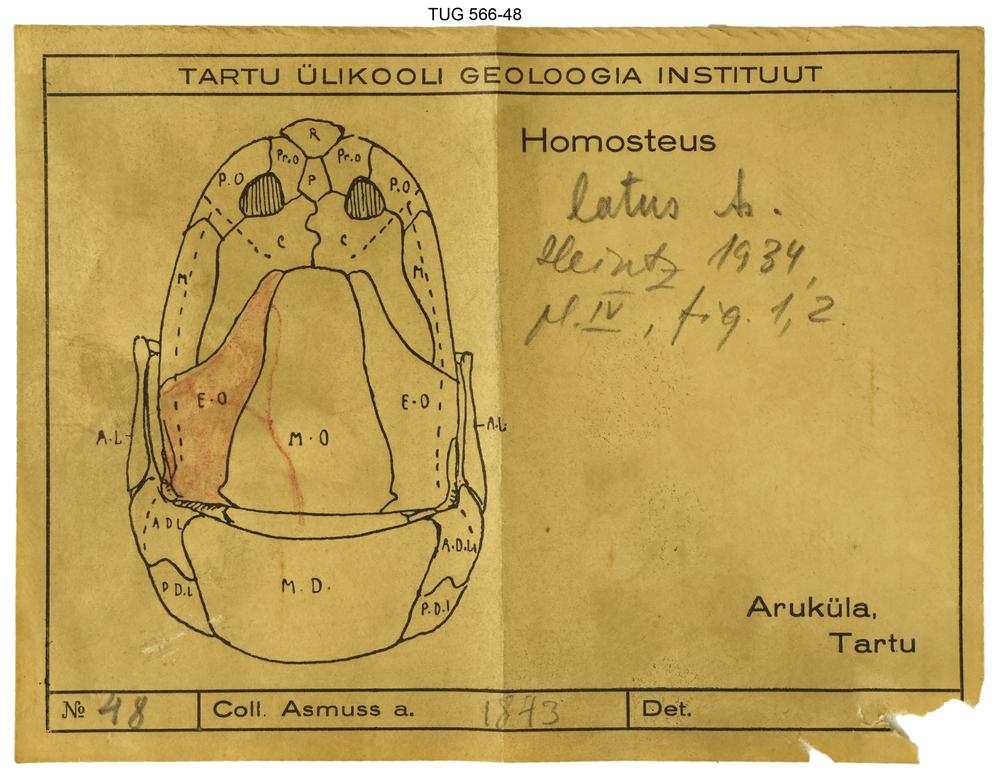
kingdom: Animalia
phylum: Chordata
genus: Homosteus
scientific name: Homosteus latus
